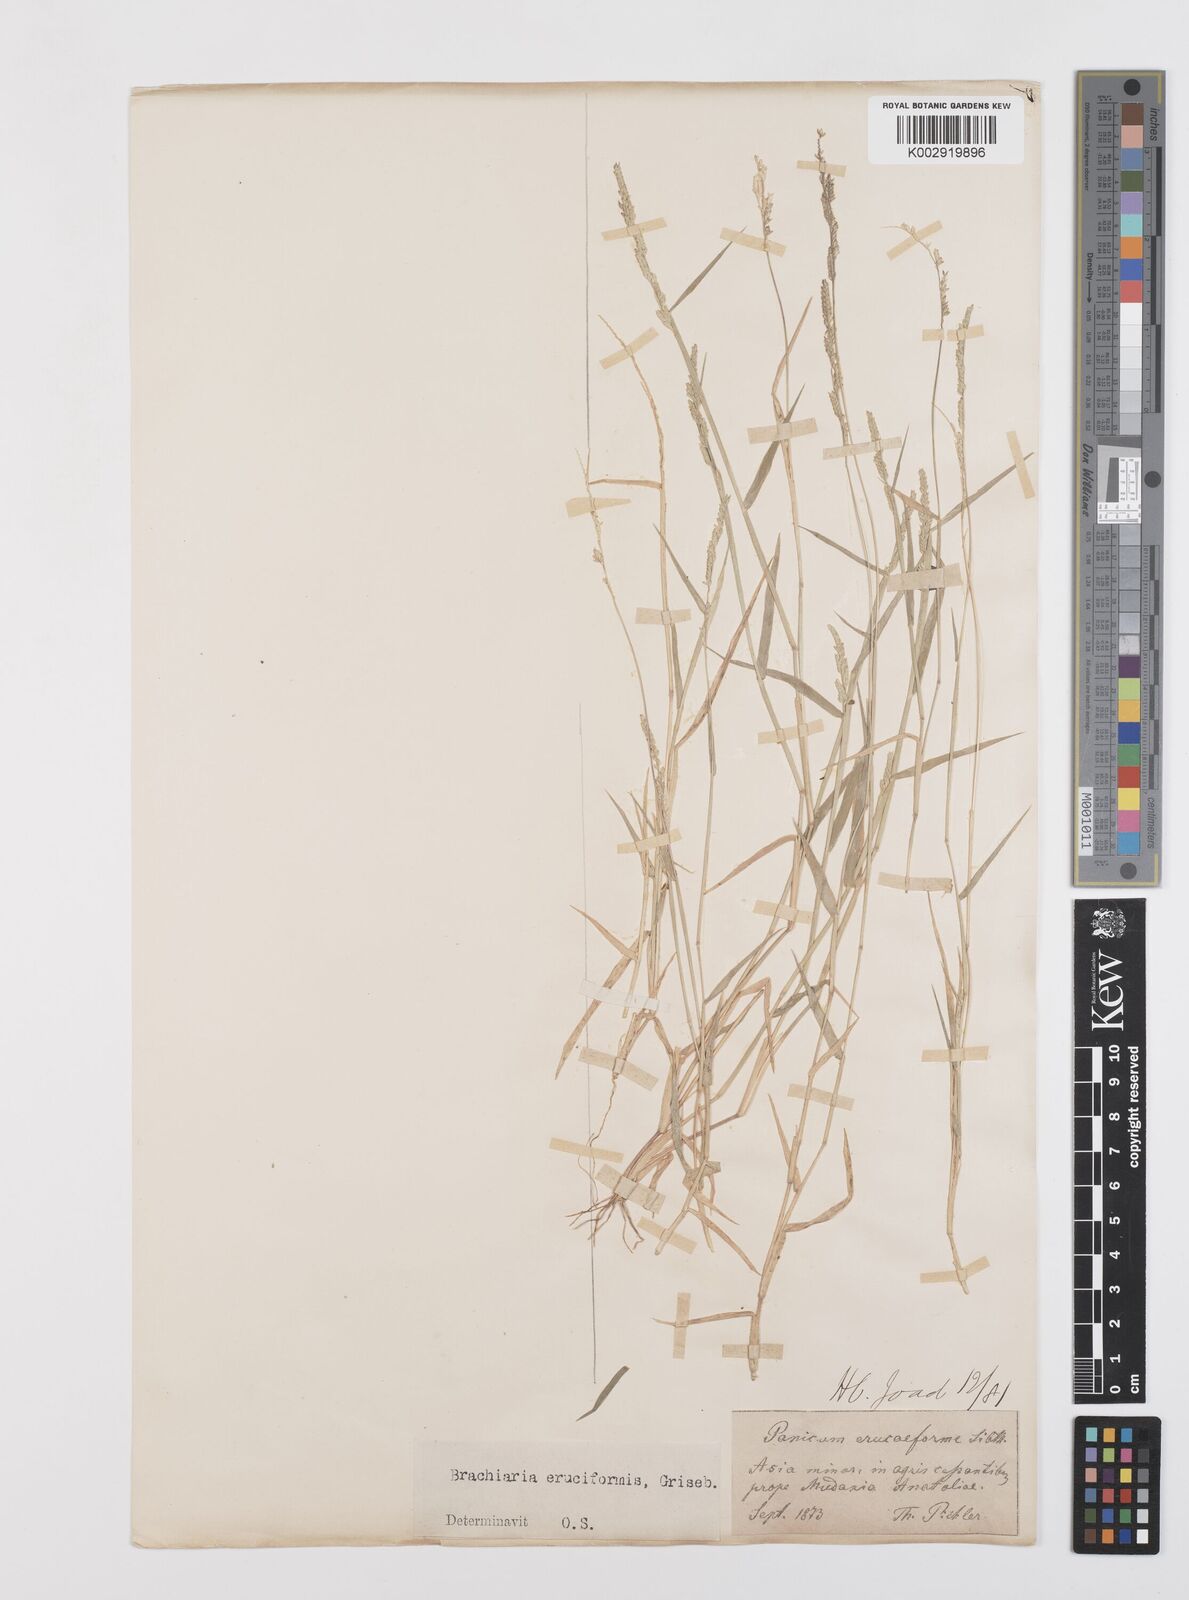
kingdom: Plantae
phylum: Tracheophyta
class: Liliopsida
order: Poales
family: Poaceae
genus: Moorochloa
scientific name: Moorochloa eruciformis
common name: Sweet signalgrass
